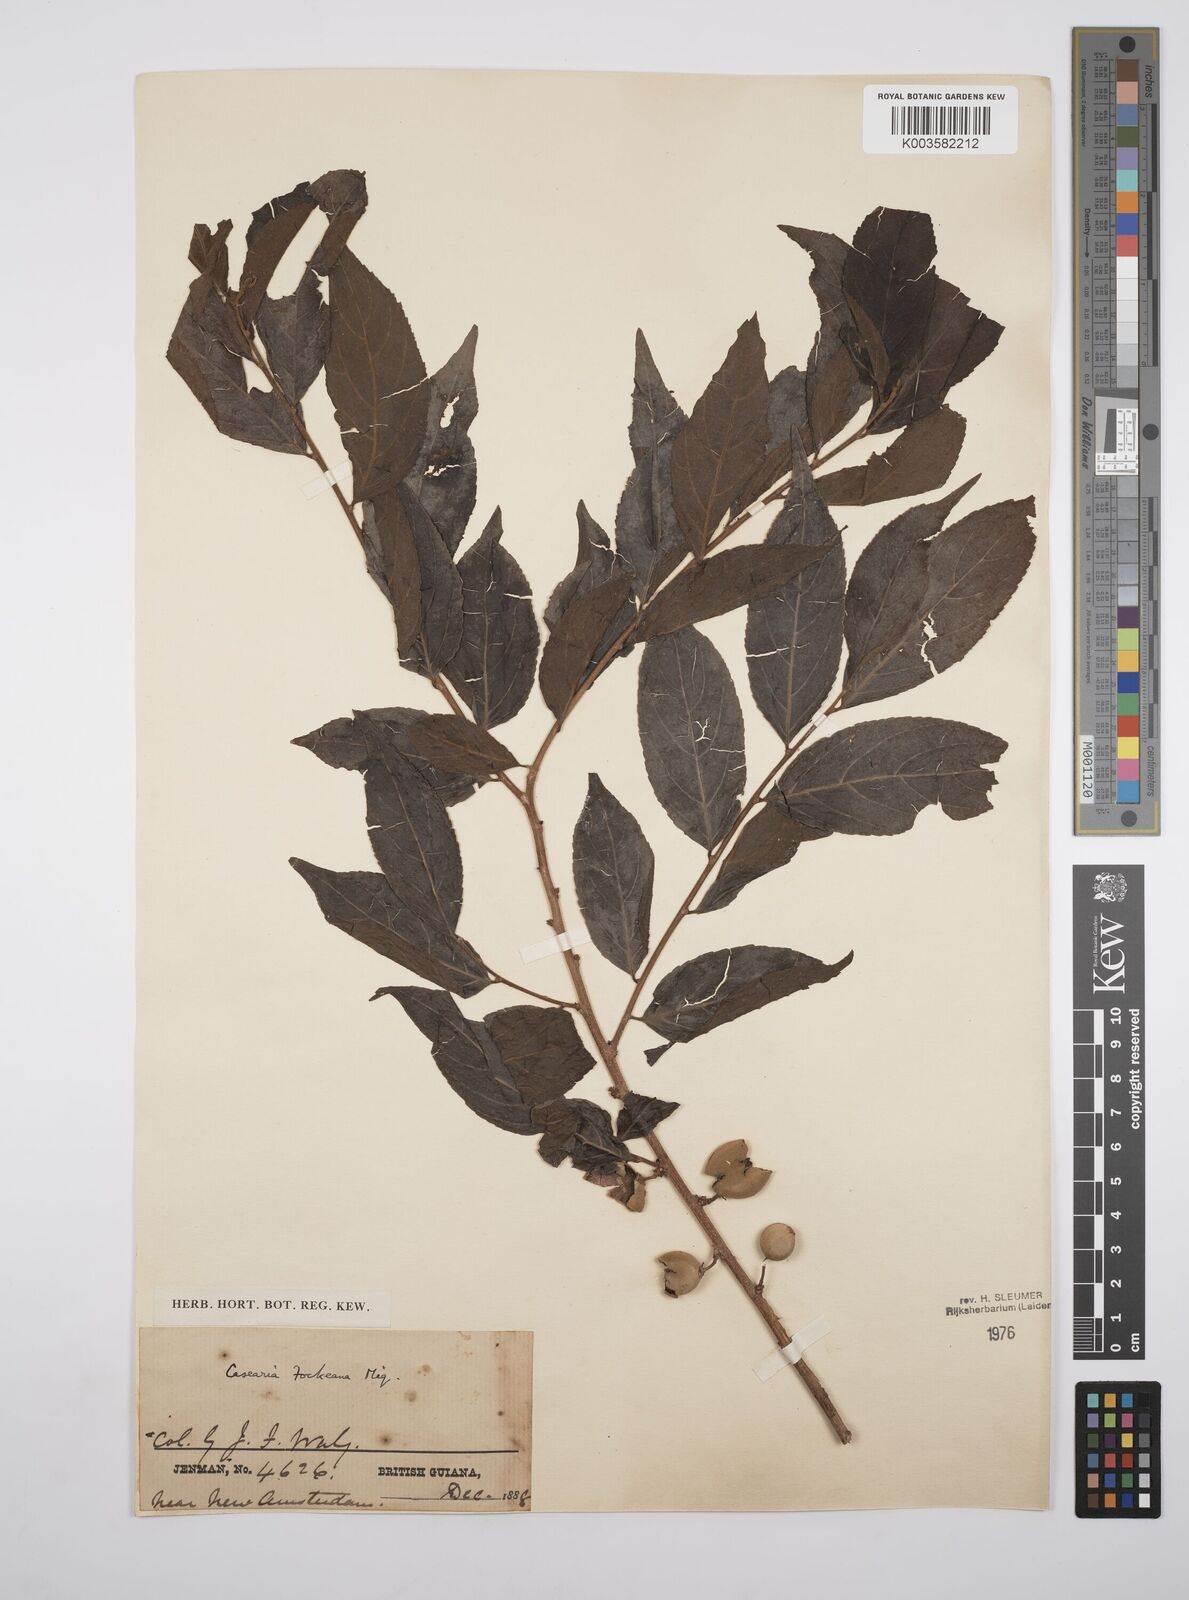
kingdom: Plantae
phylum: Tracheophyta
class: Magnoliopsida
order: Malpighiales
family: Salicaceae
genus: Casearia
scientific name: Casearia mariquitensis
